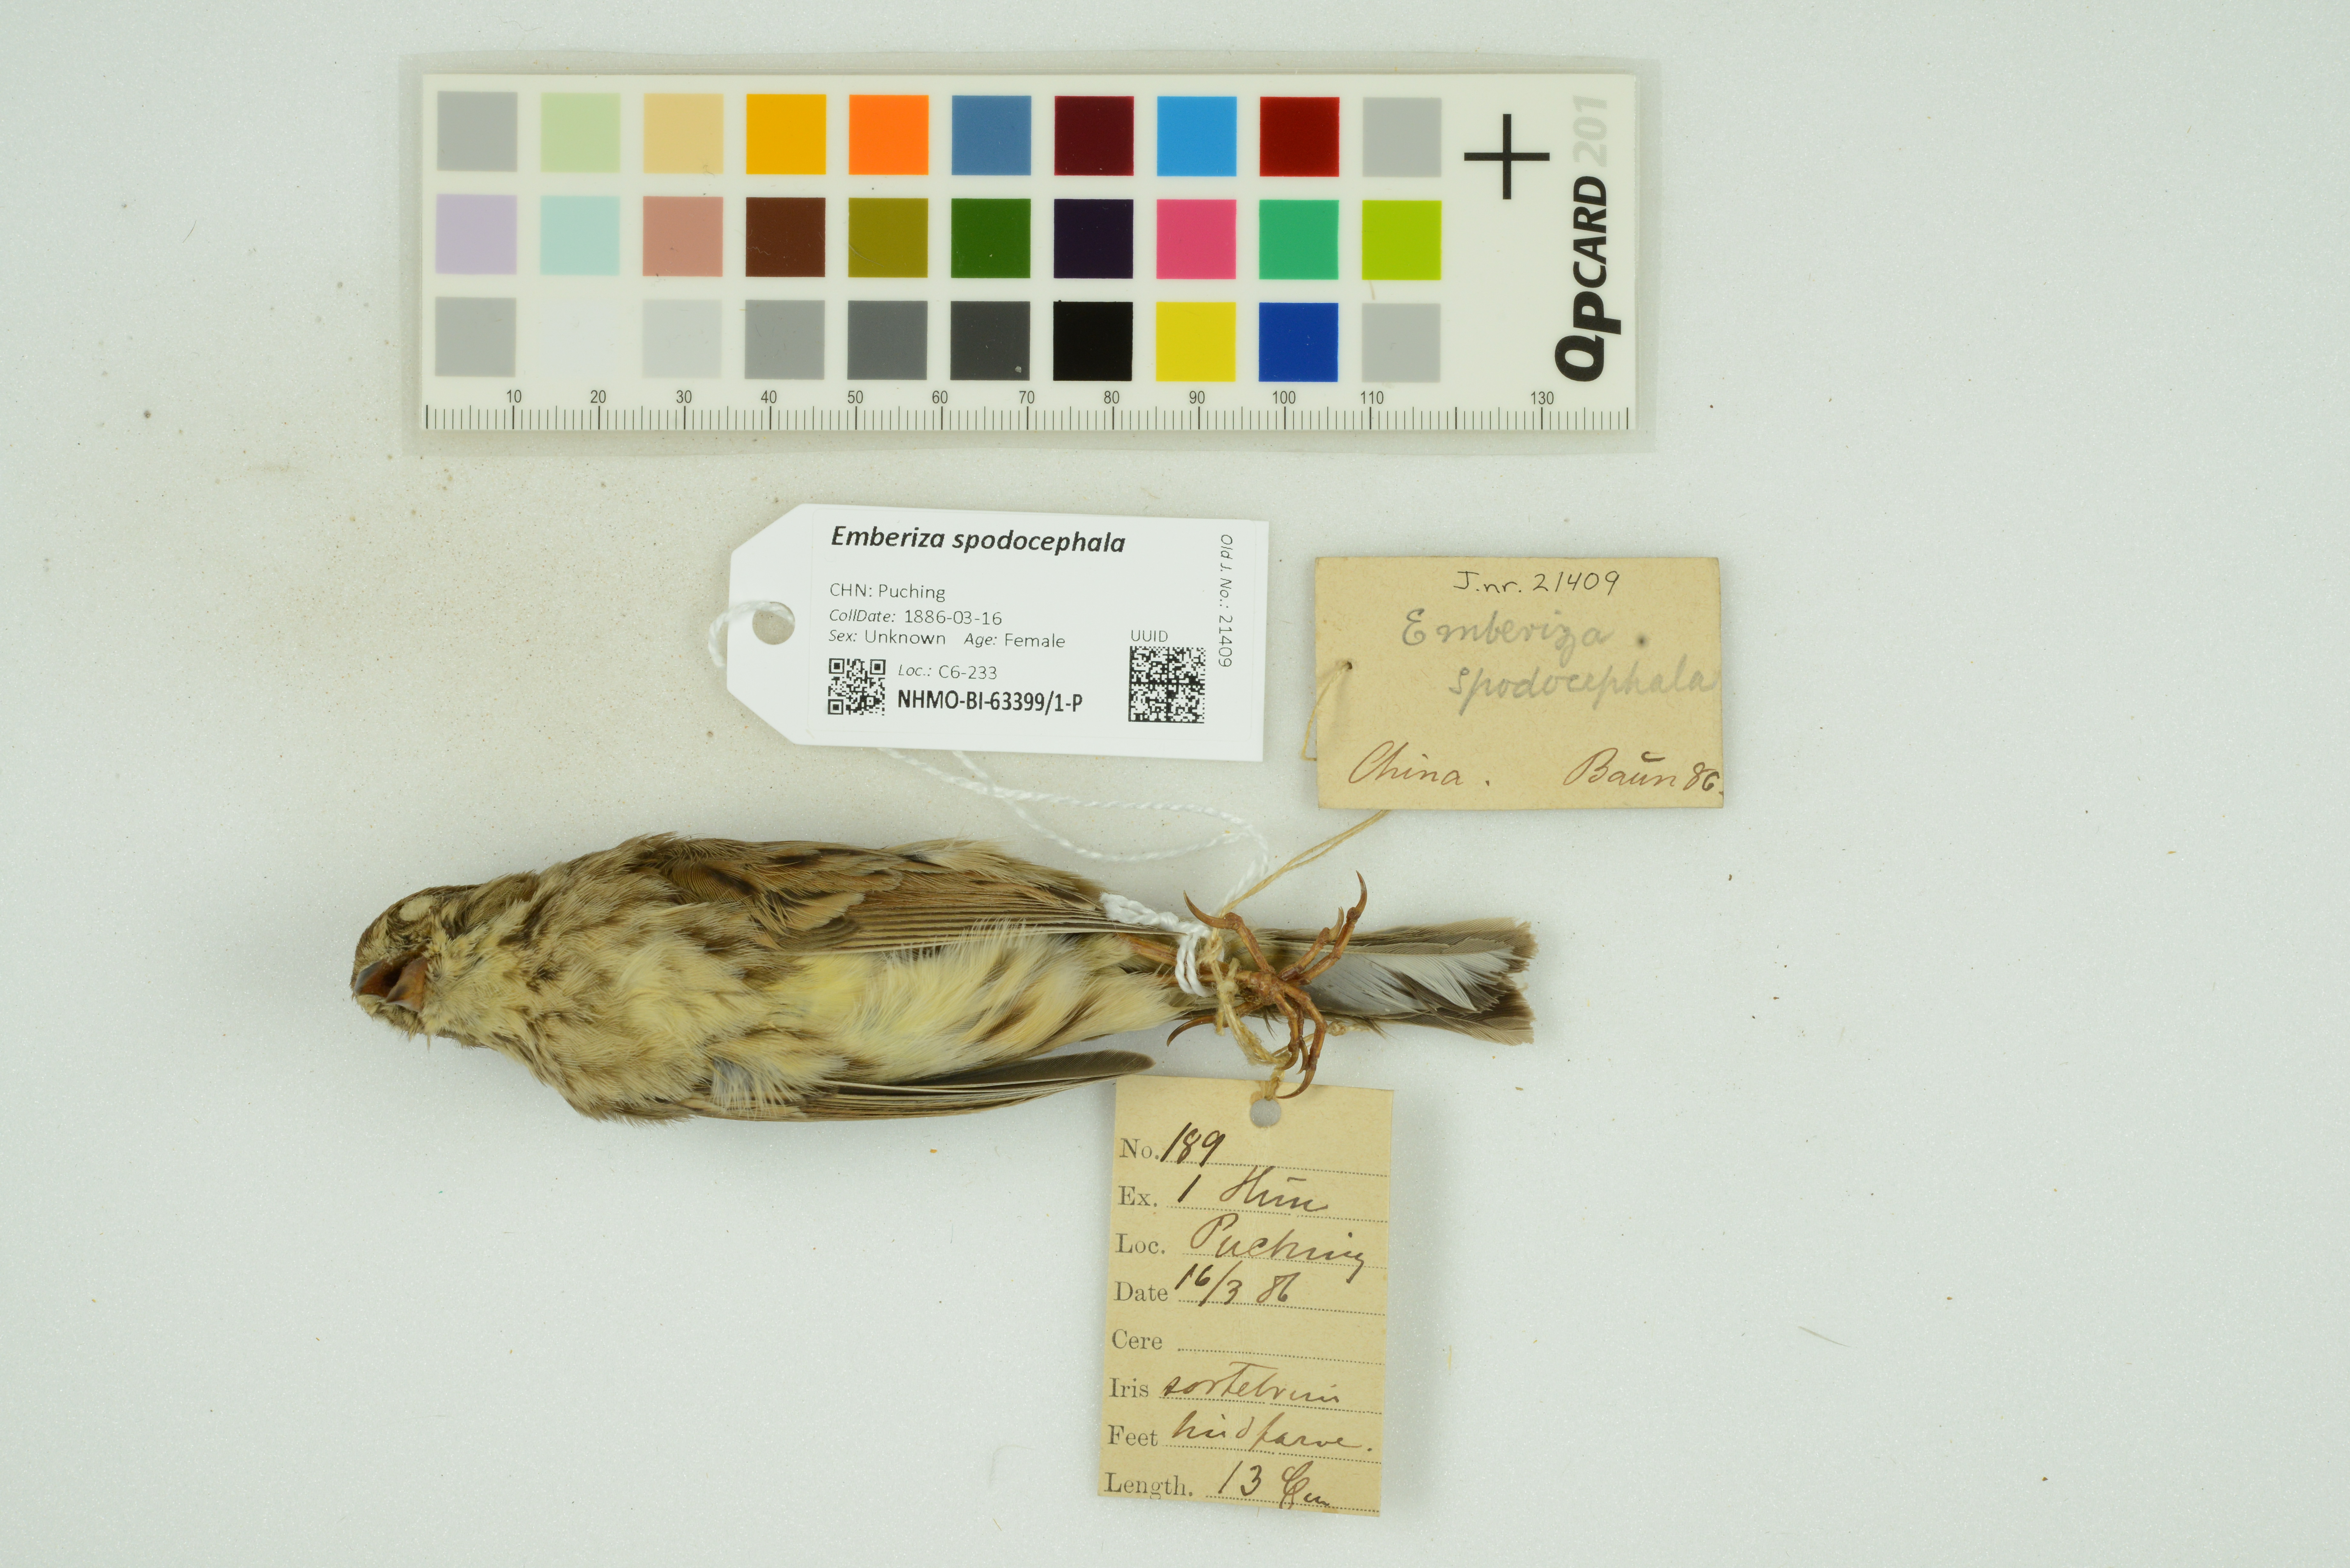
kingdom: Animalia
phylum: Chordata
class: Aves
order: Passeriformes
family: Emberizidae
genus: Emberiza
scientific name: Emberiza spodocephala
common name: Black-faced bunting
